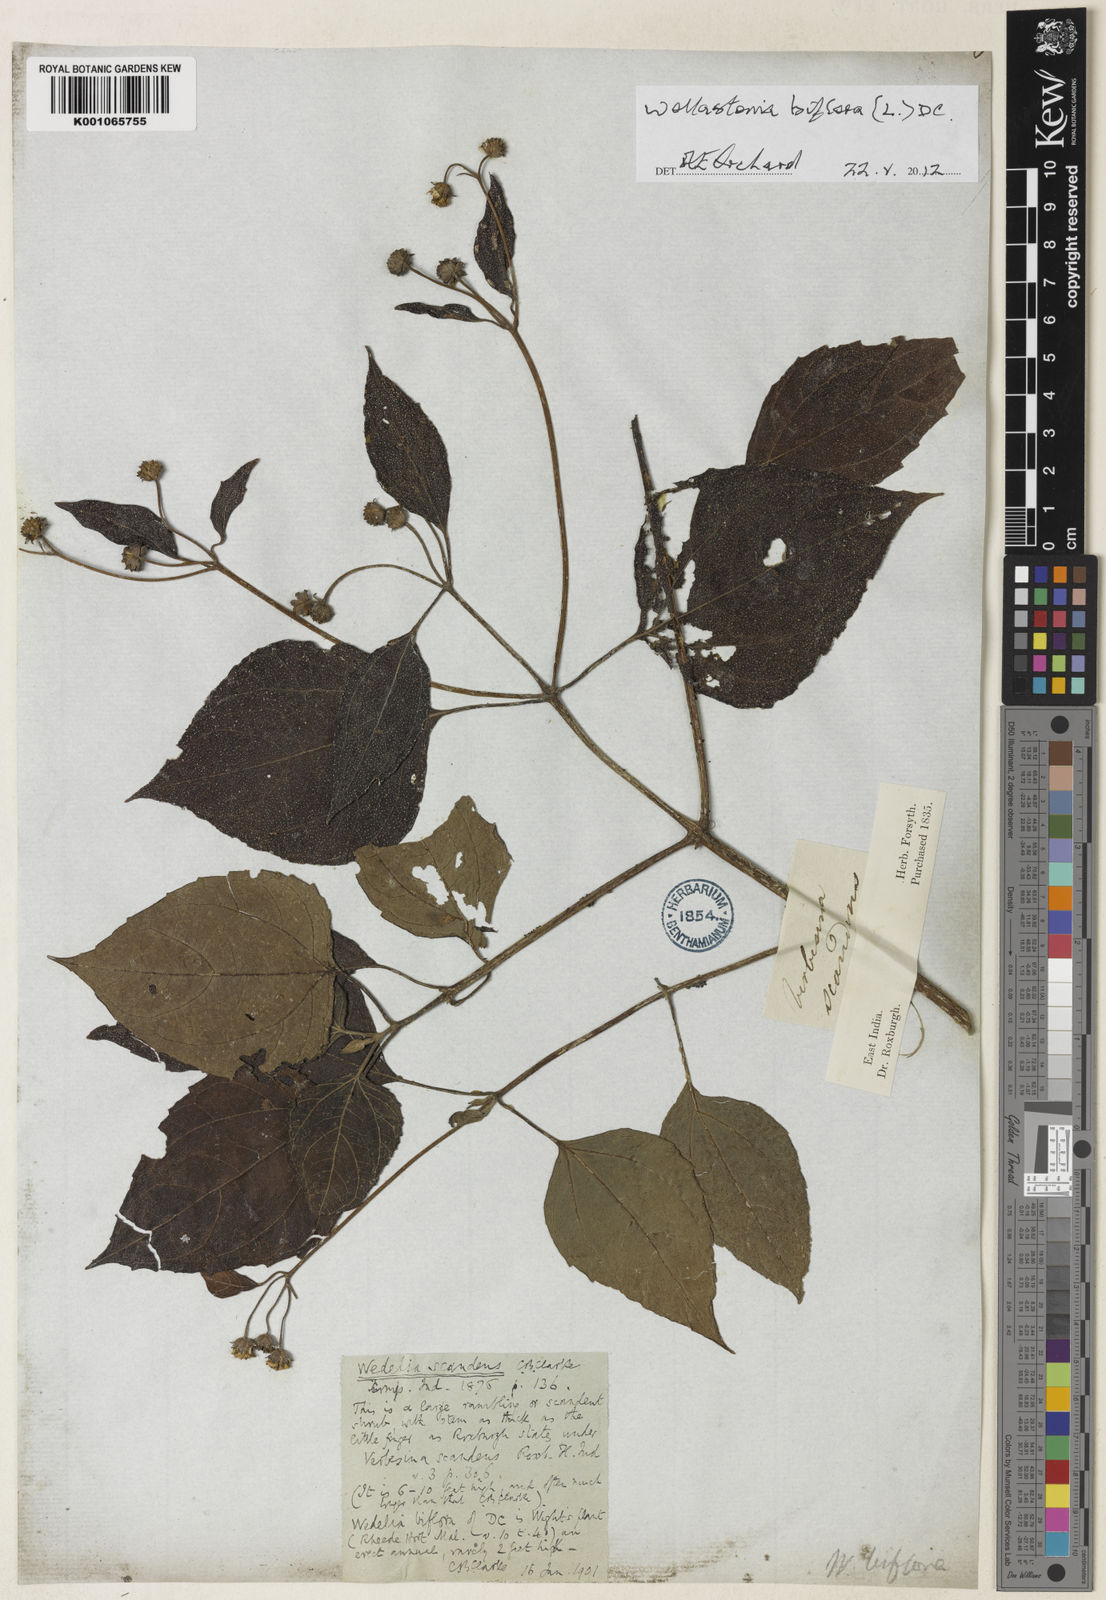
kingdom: Plantae
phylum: Tracheophyta
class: Magnoliopsida
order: Asterales
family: Asteraceae
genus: Wollastonia
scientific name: Wollastonia biflora
